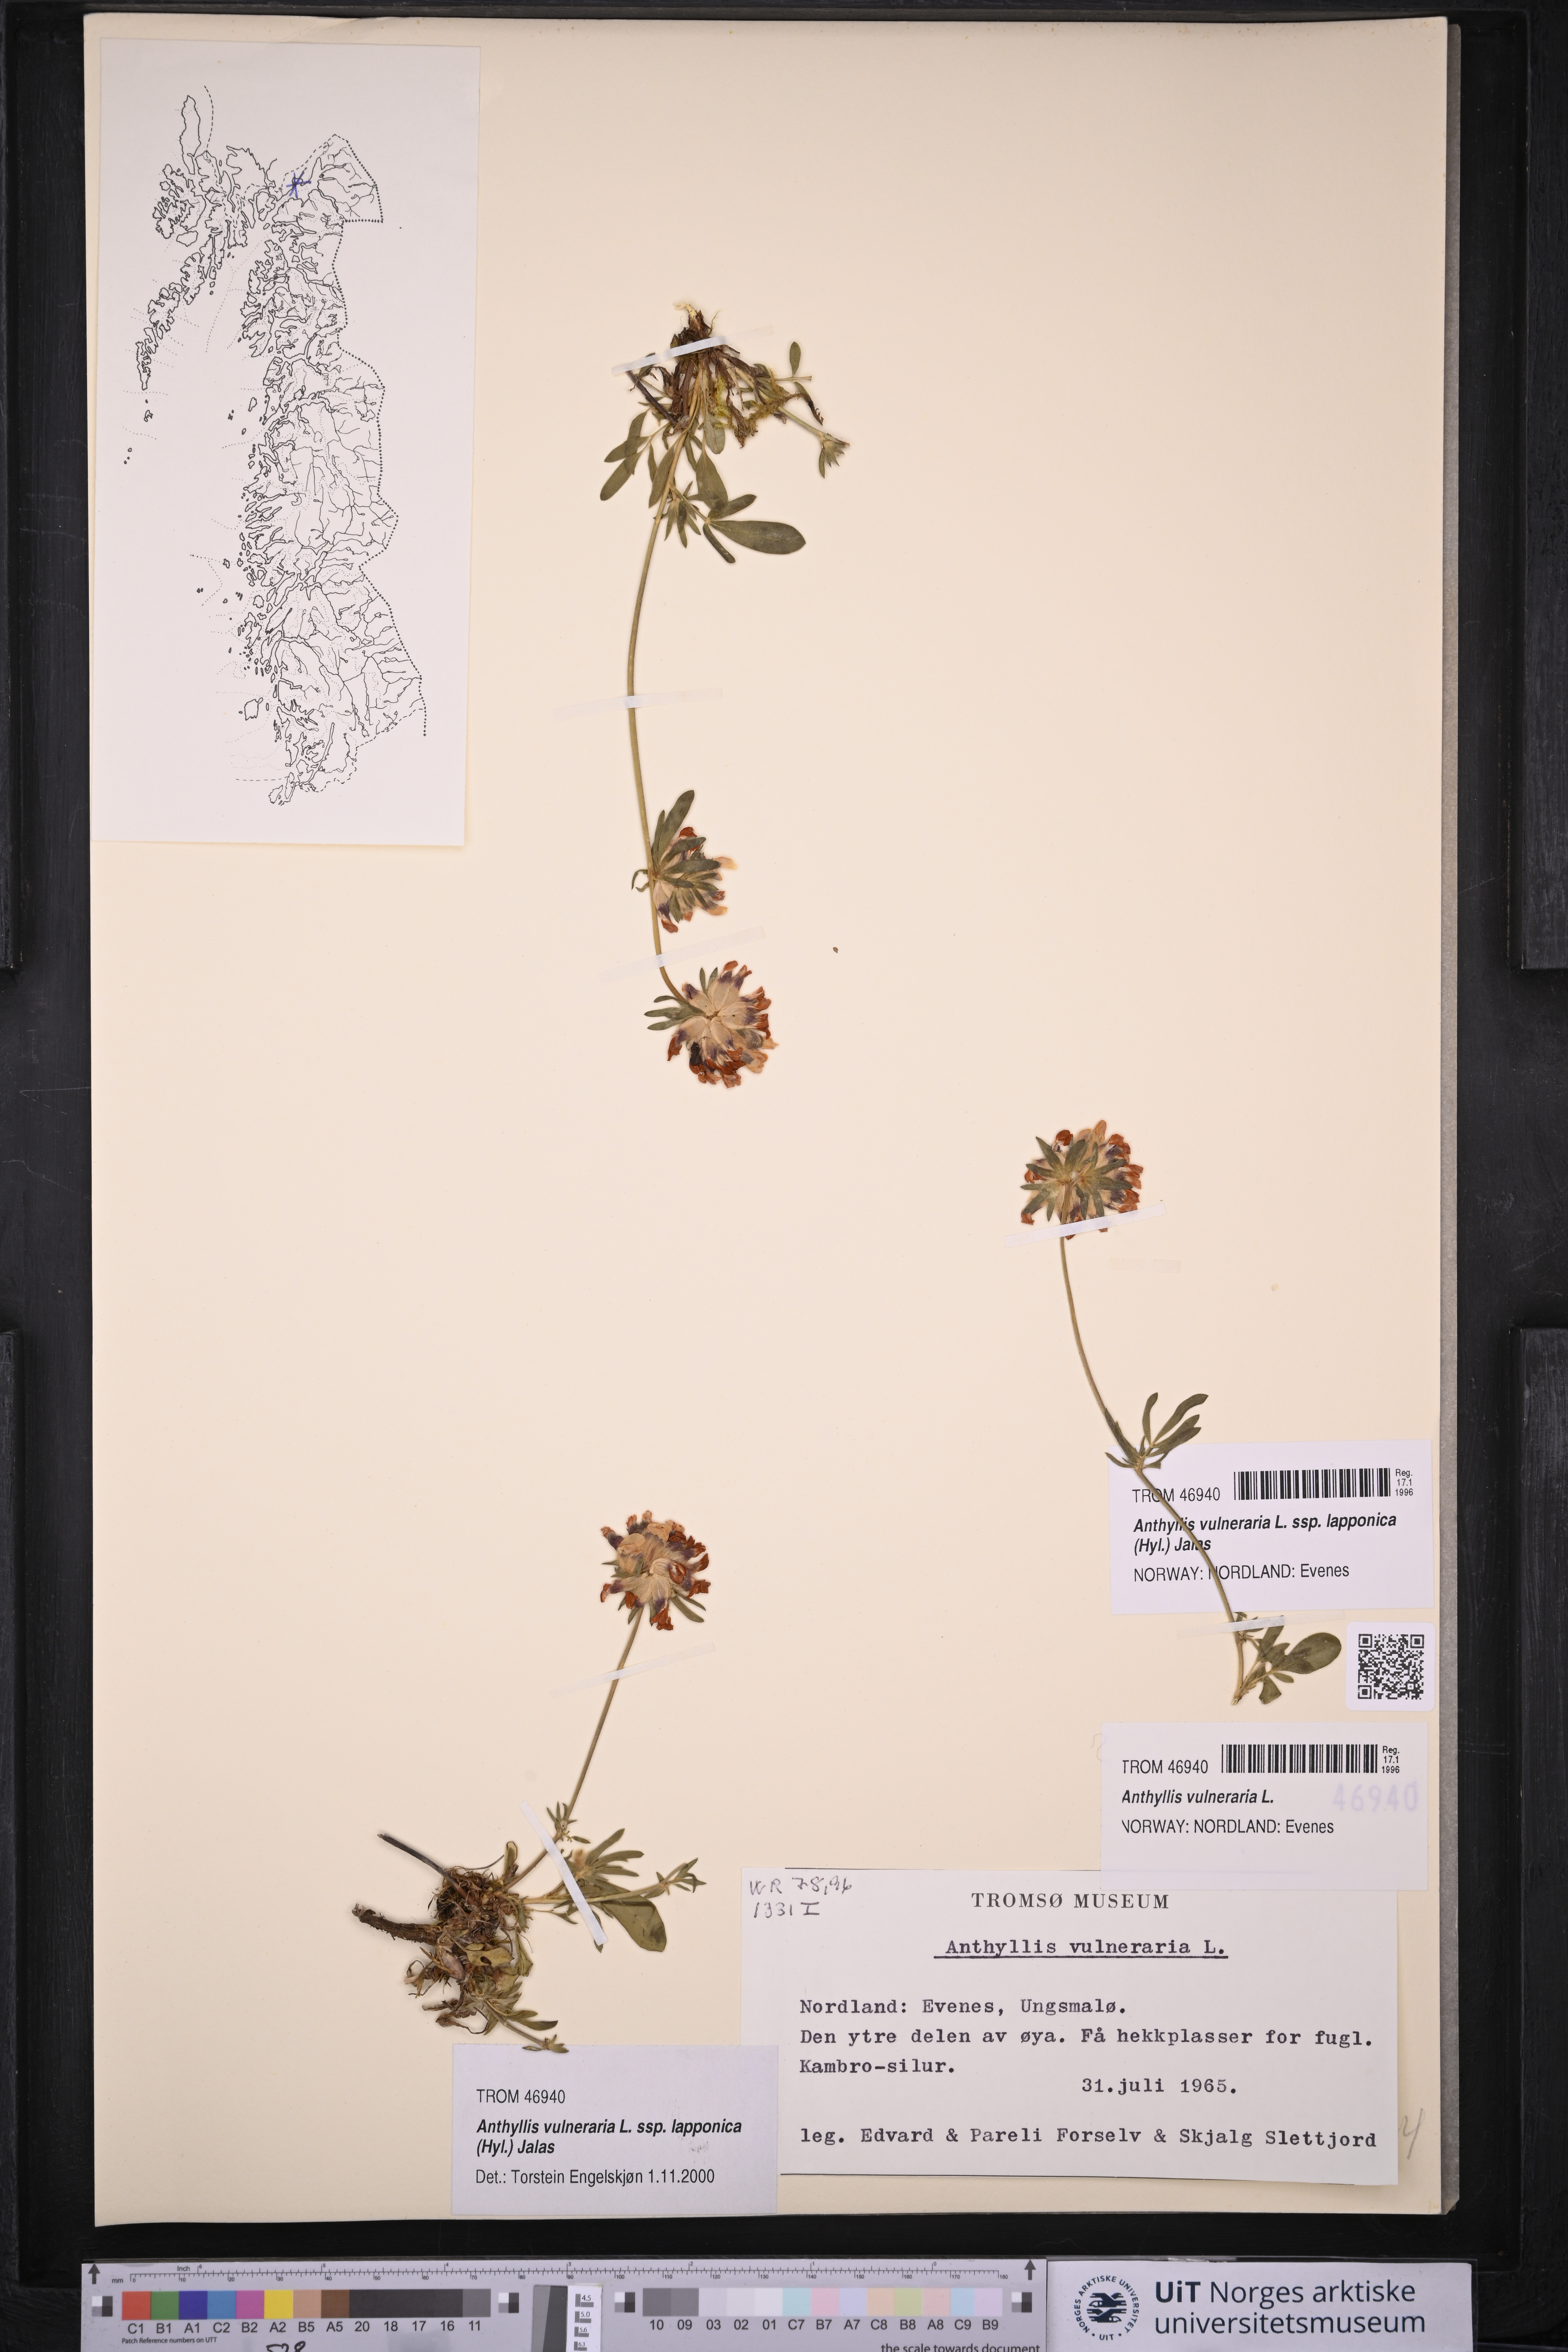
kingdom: Plantae
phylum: Tracheophyta
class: Magnoliopsida
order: Fabales
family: Fabaceae
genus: Anthyllis
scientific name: Anthyllis vulneraria
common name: Kidney vetch
